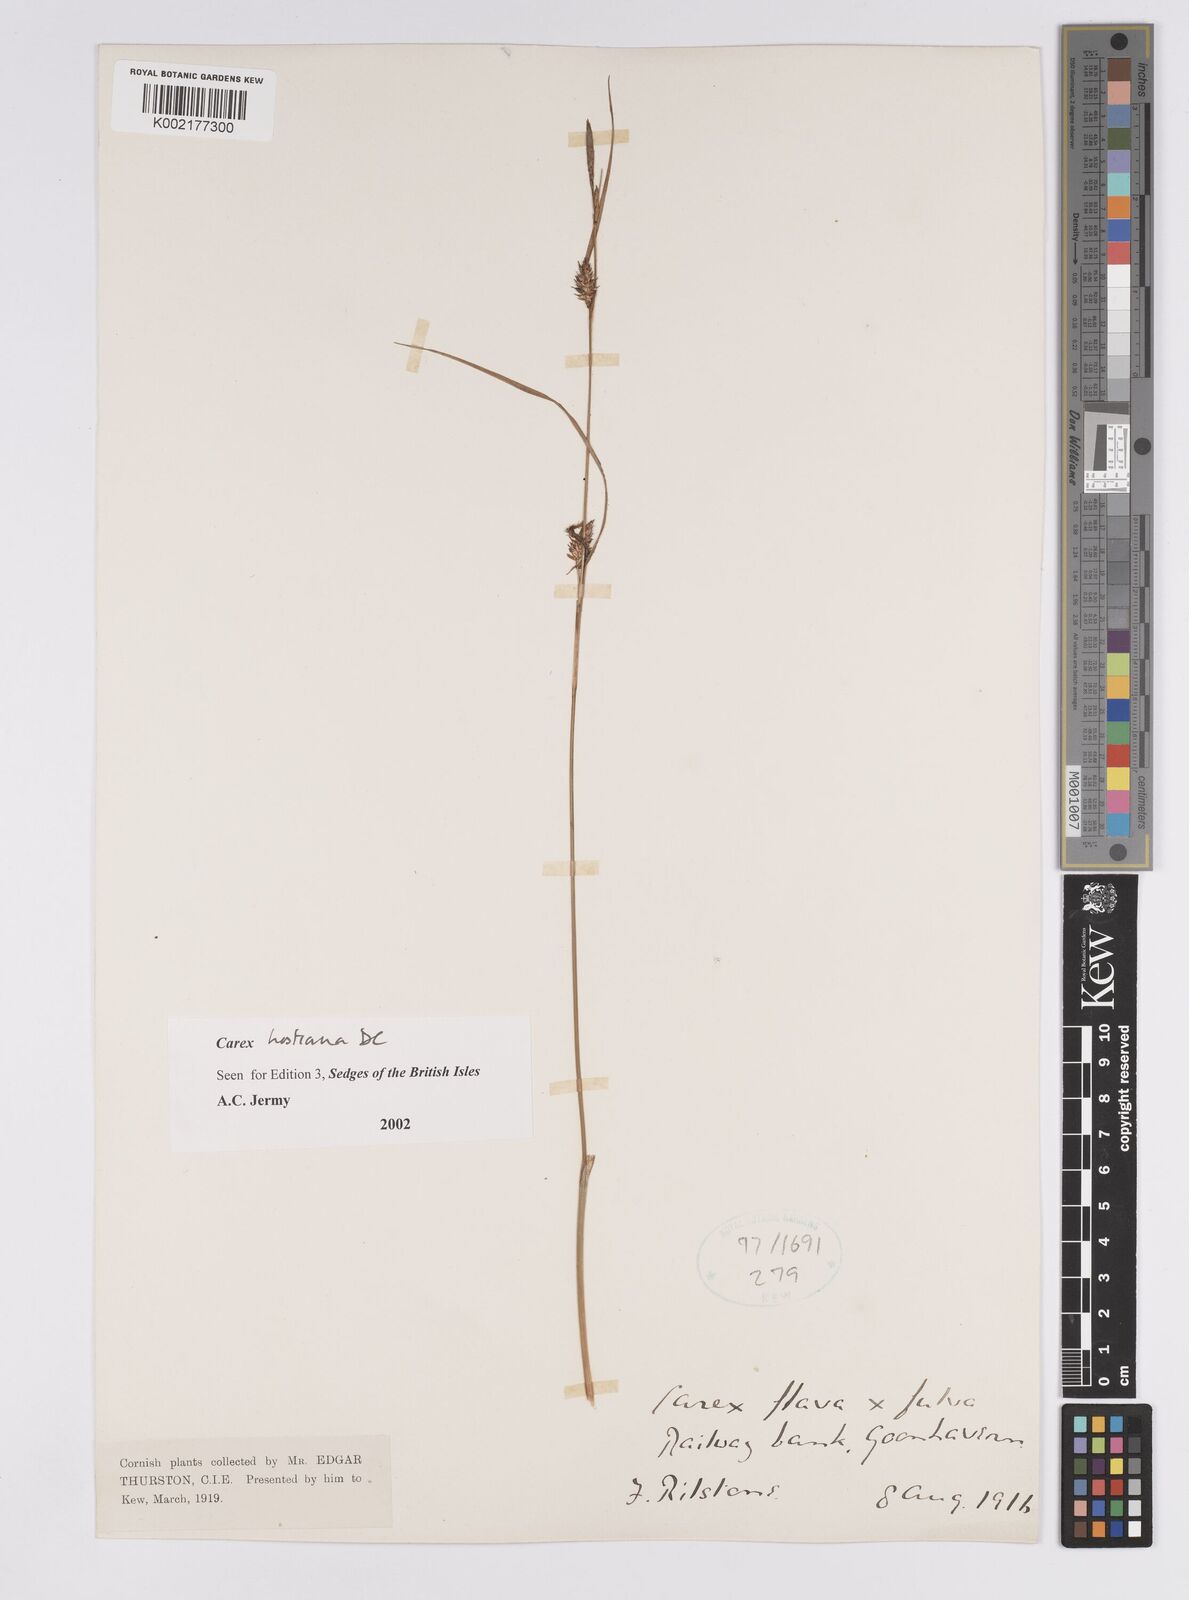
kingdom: Plantae
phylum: Tracheophyta
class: Liliopsida
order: Poales
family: Cyperaceae
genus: Carex
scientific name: Carex hostiana
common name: Tawny sedge
